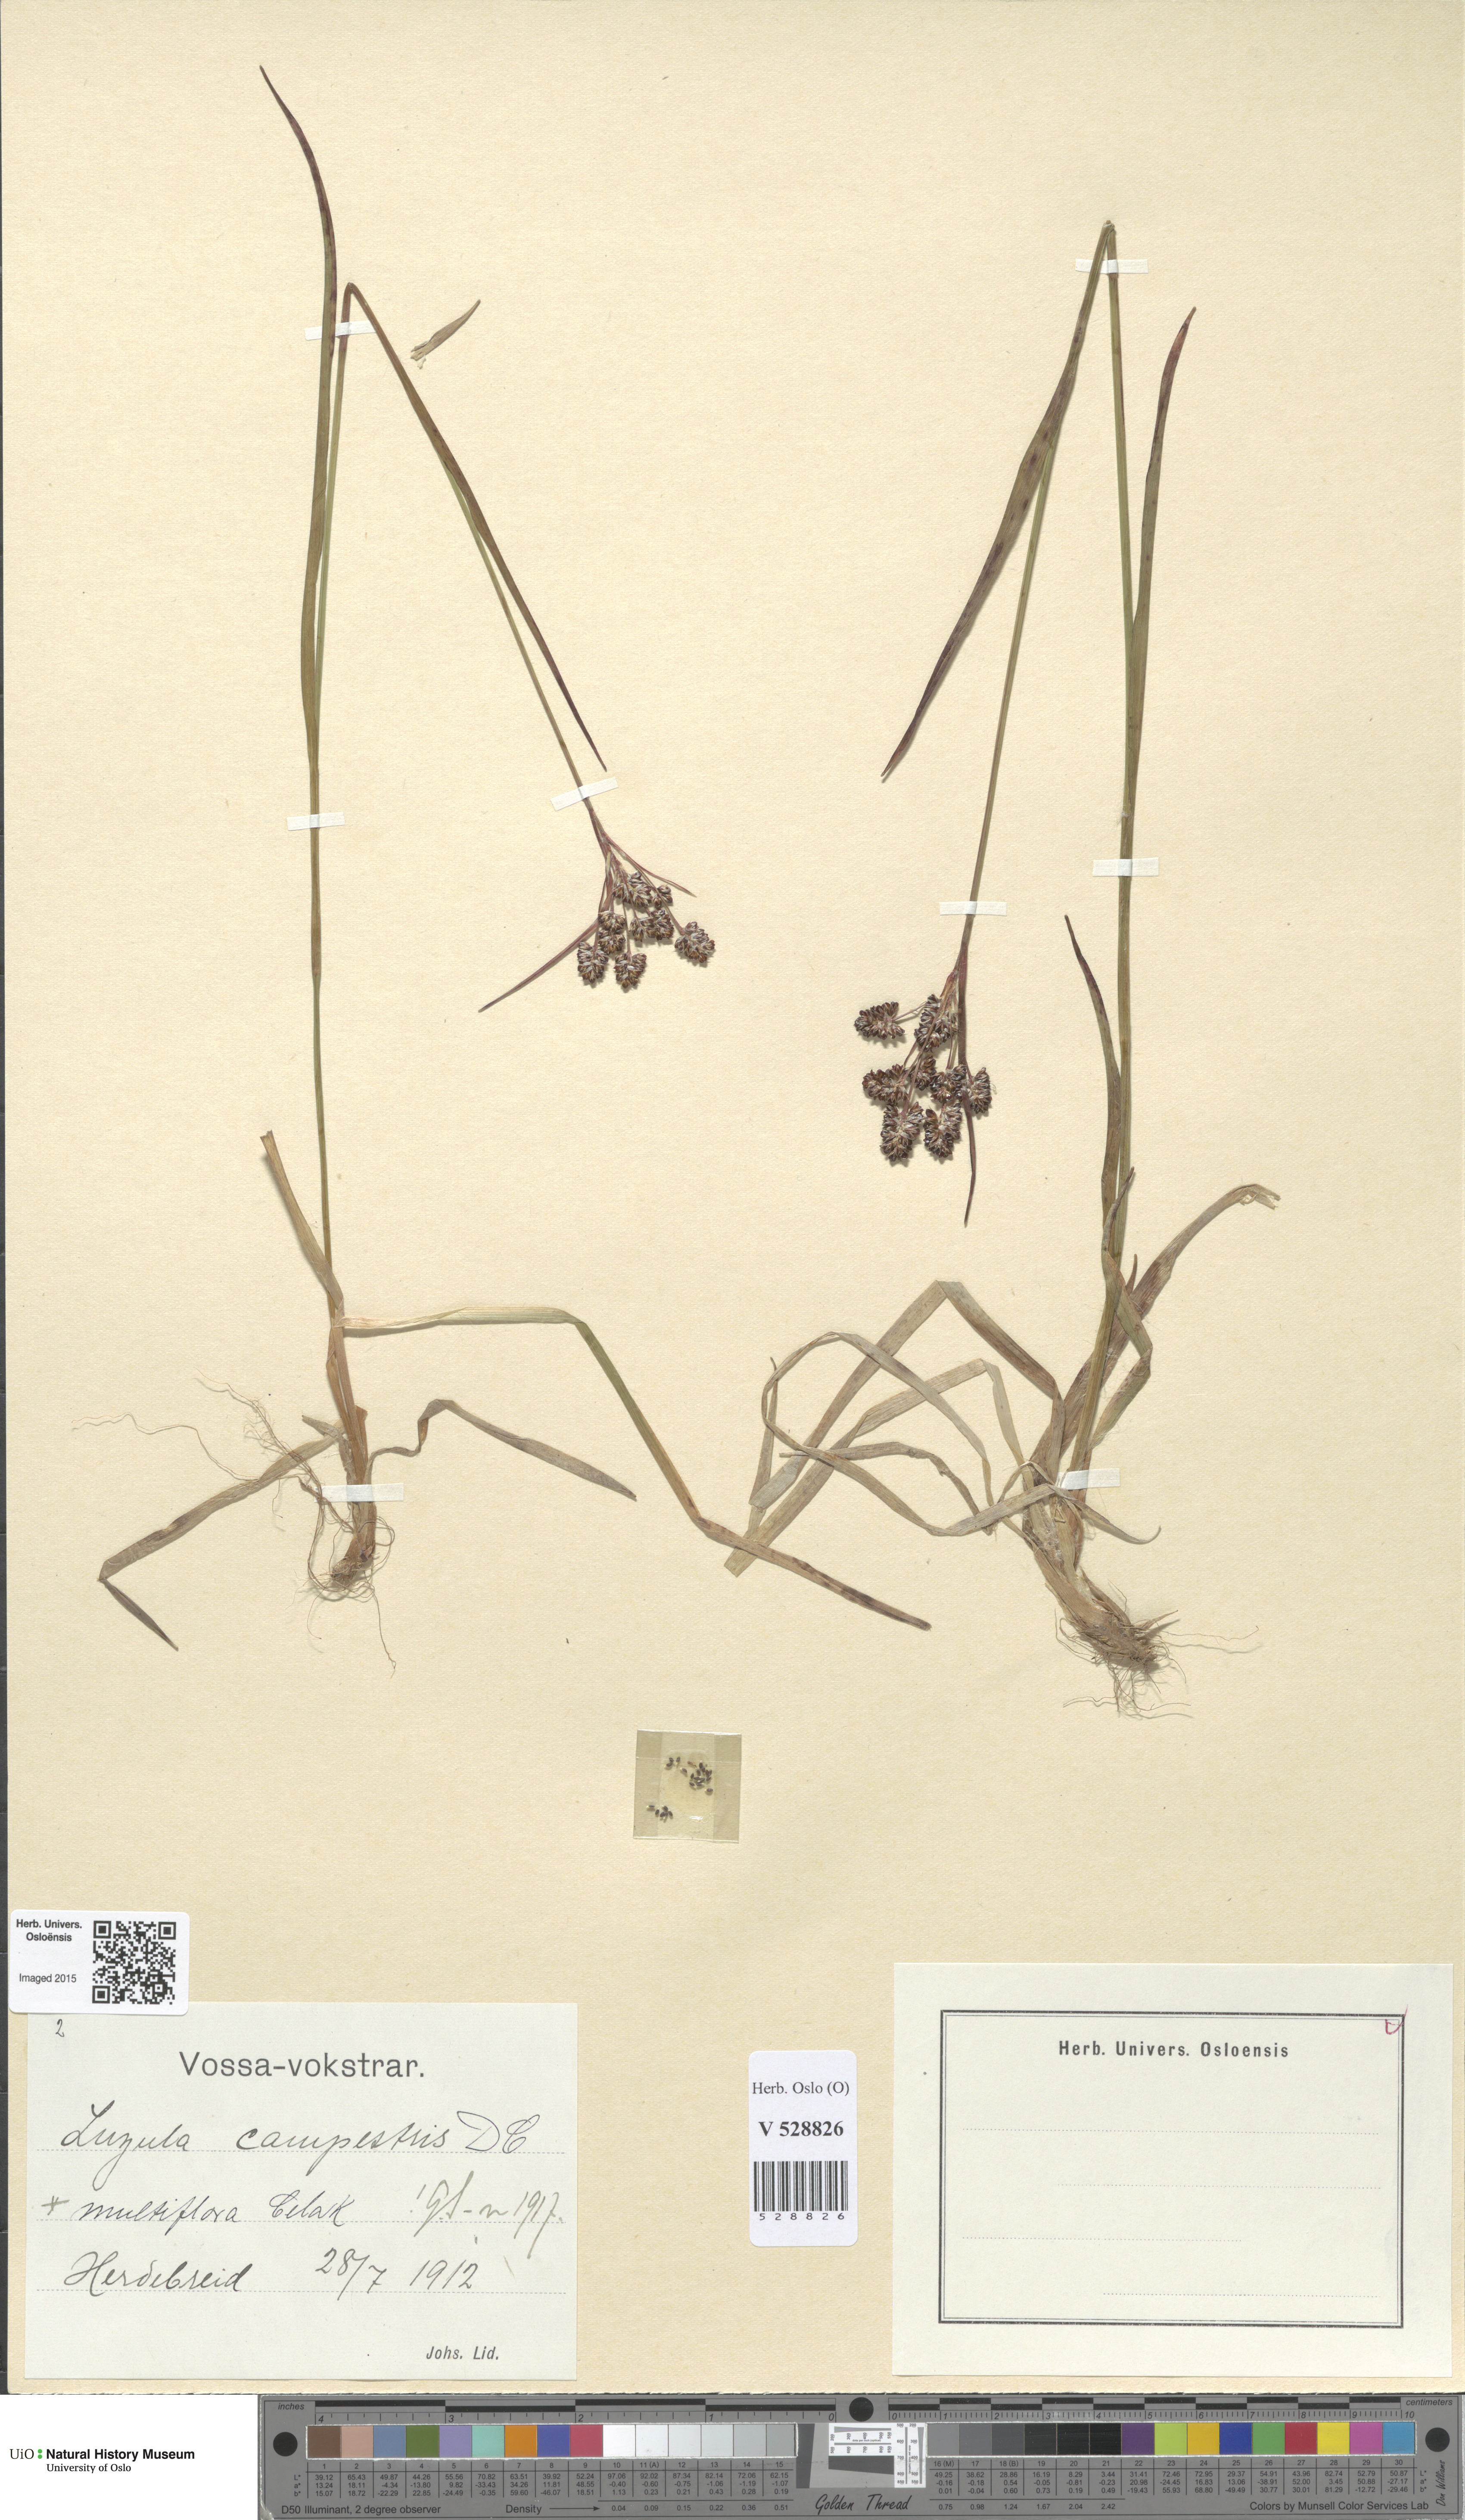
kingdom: Plantae
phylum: Tracheophyta
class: Liliopsida
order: Poales
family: Juncaceae
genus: Luzula
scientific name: Luzula multiflora
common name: Heath wood-rush
